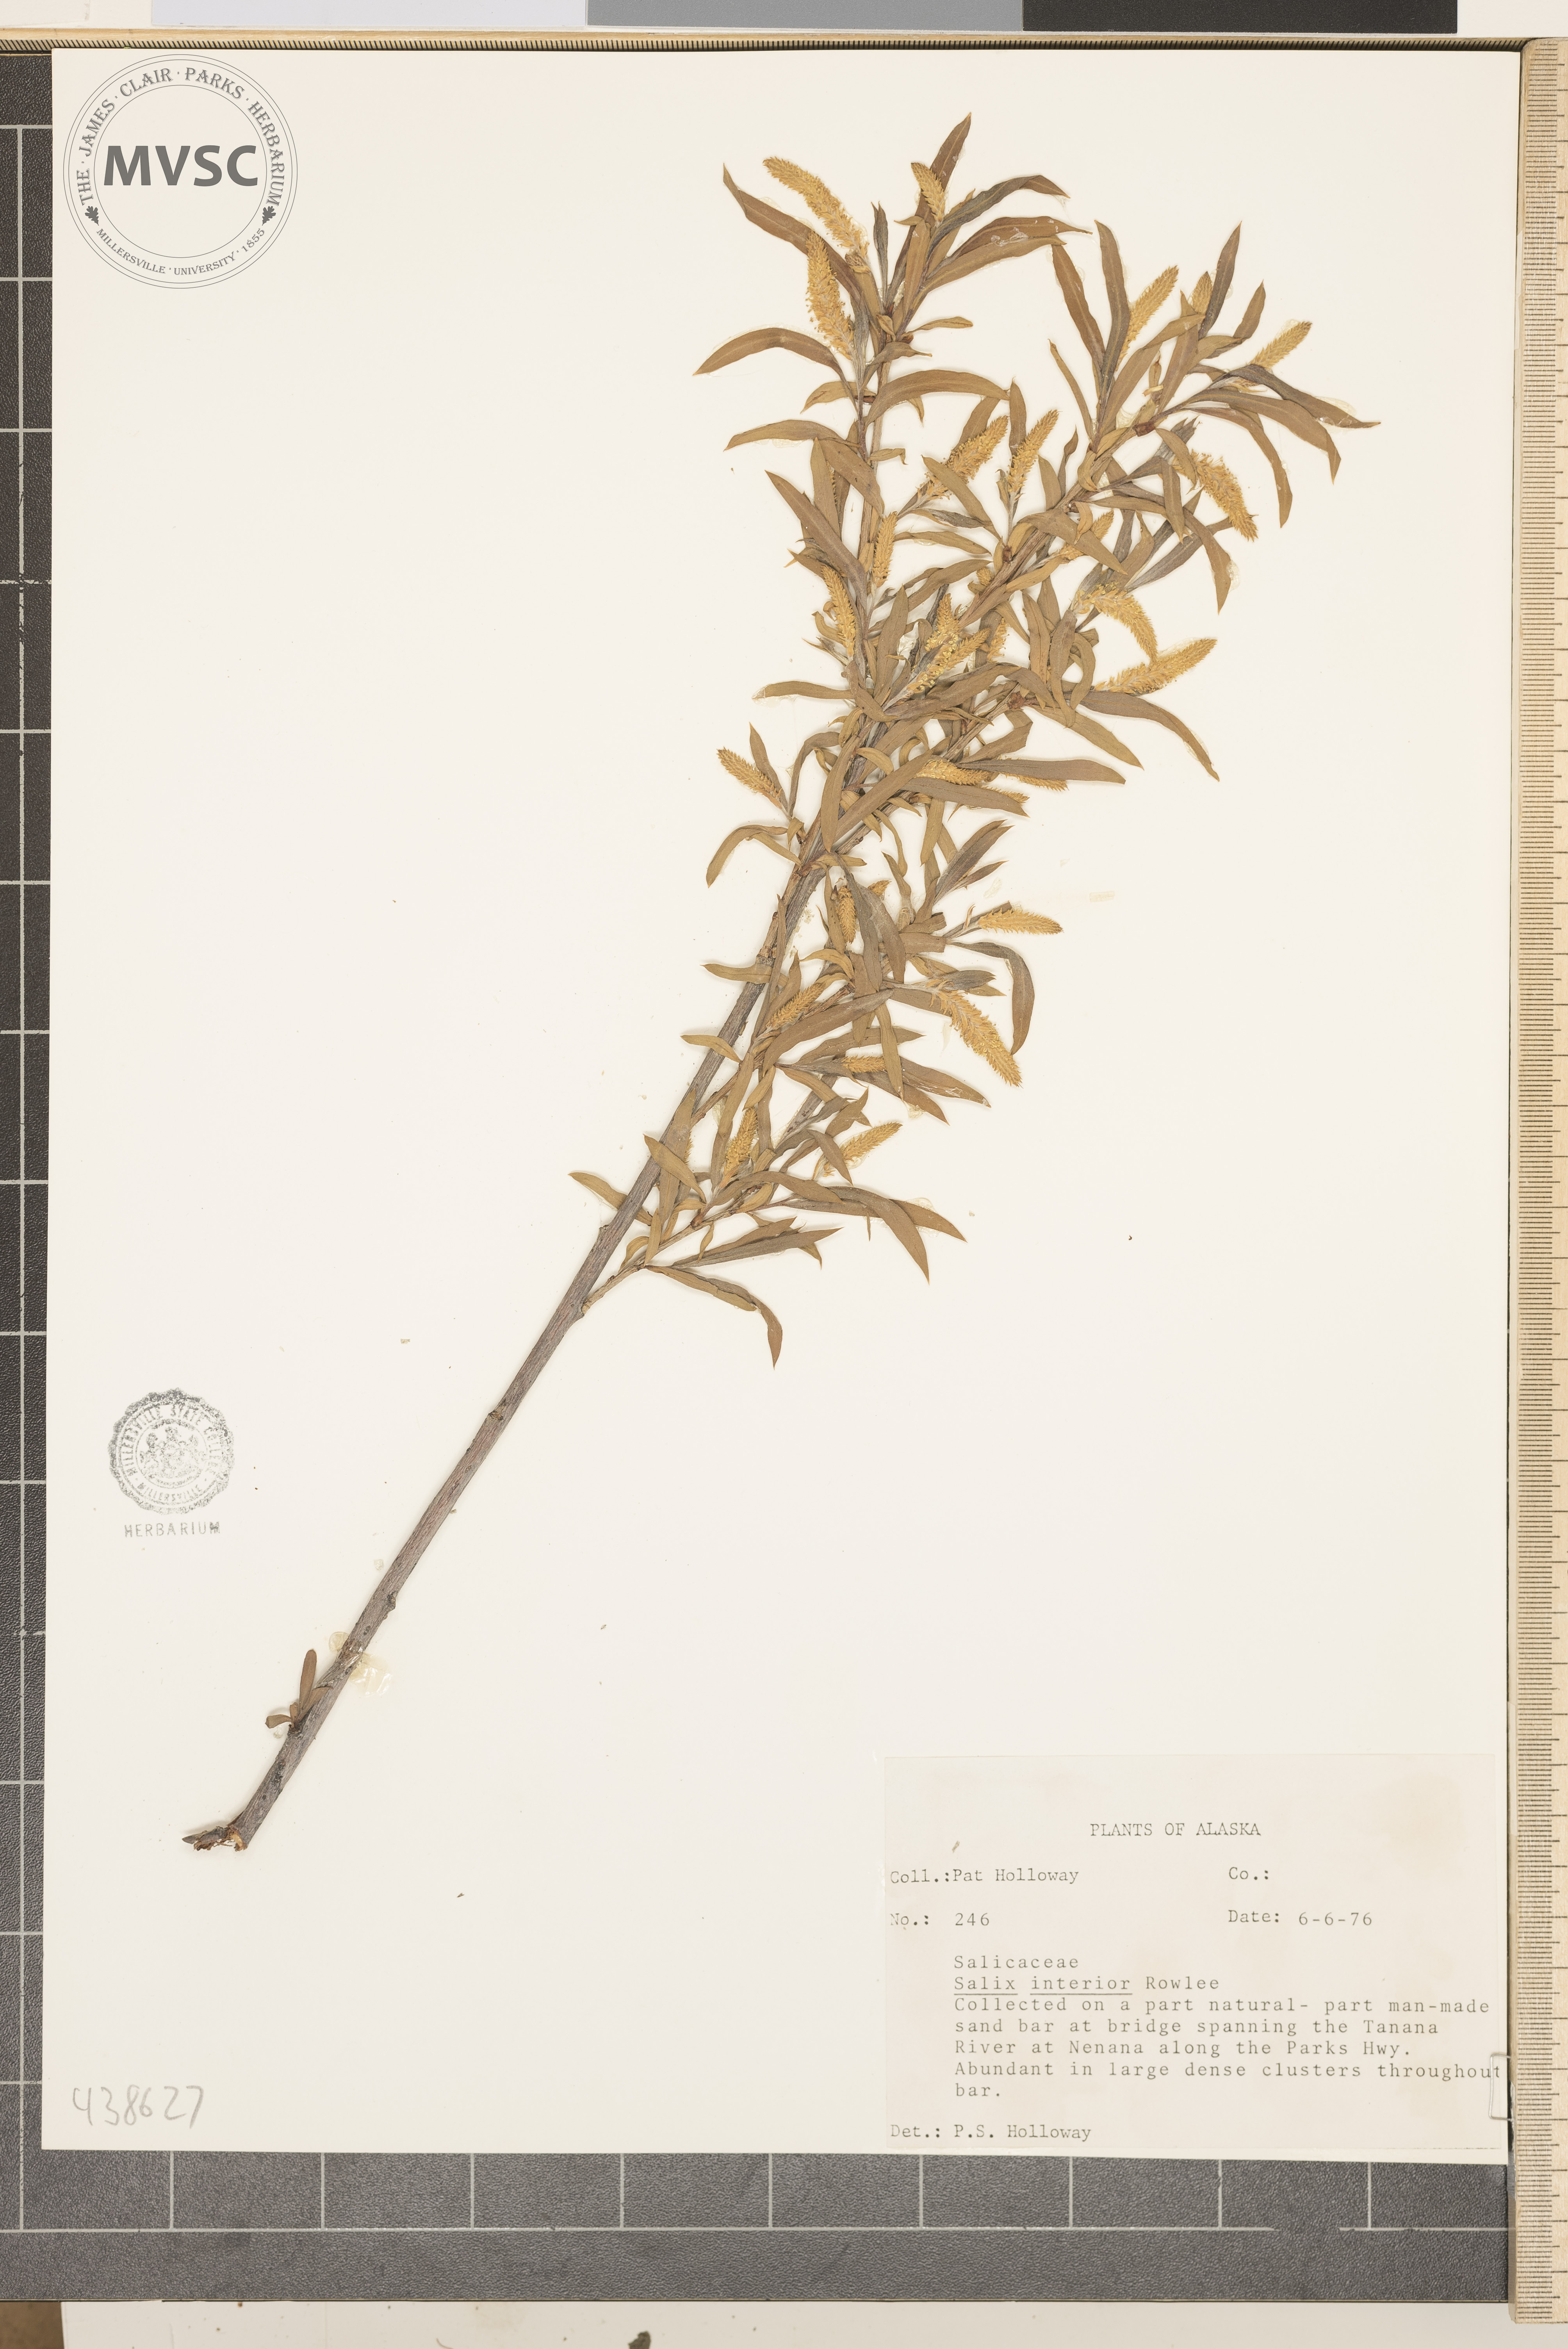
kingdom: Plantae
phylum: Tracheophyta
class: Magnoliopsida
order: Malpighiales
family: Salicaceae
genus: Salix
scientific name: Salix interior
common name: Sandbar willow
